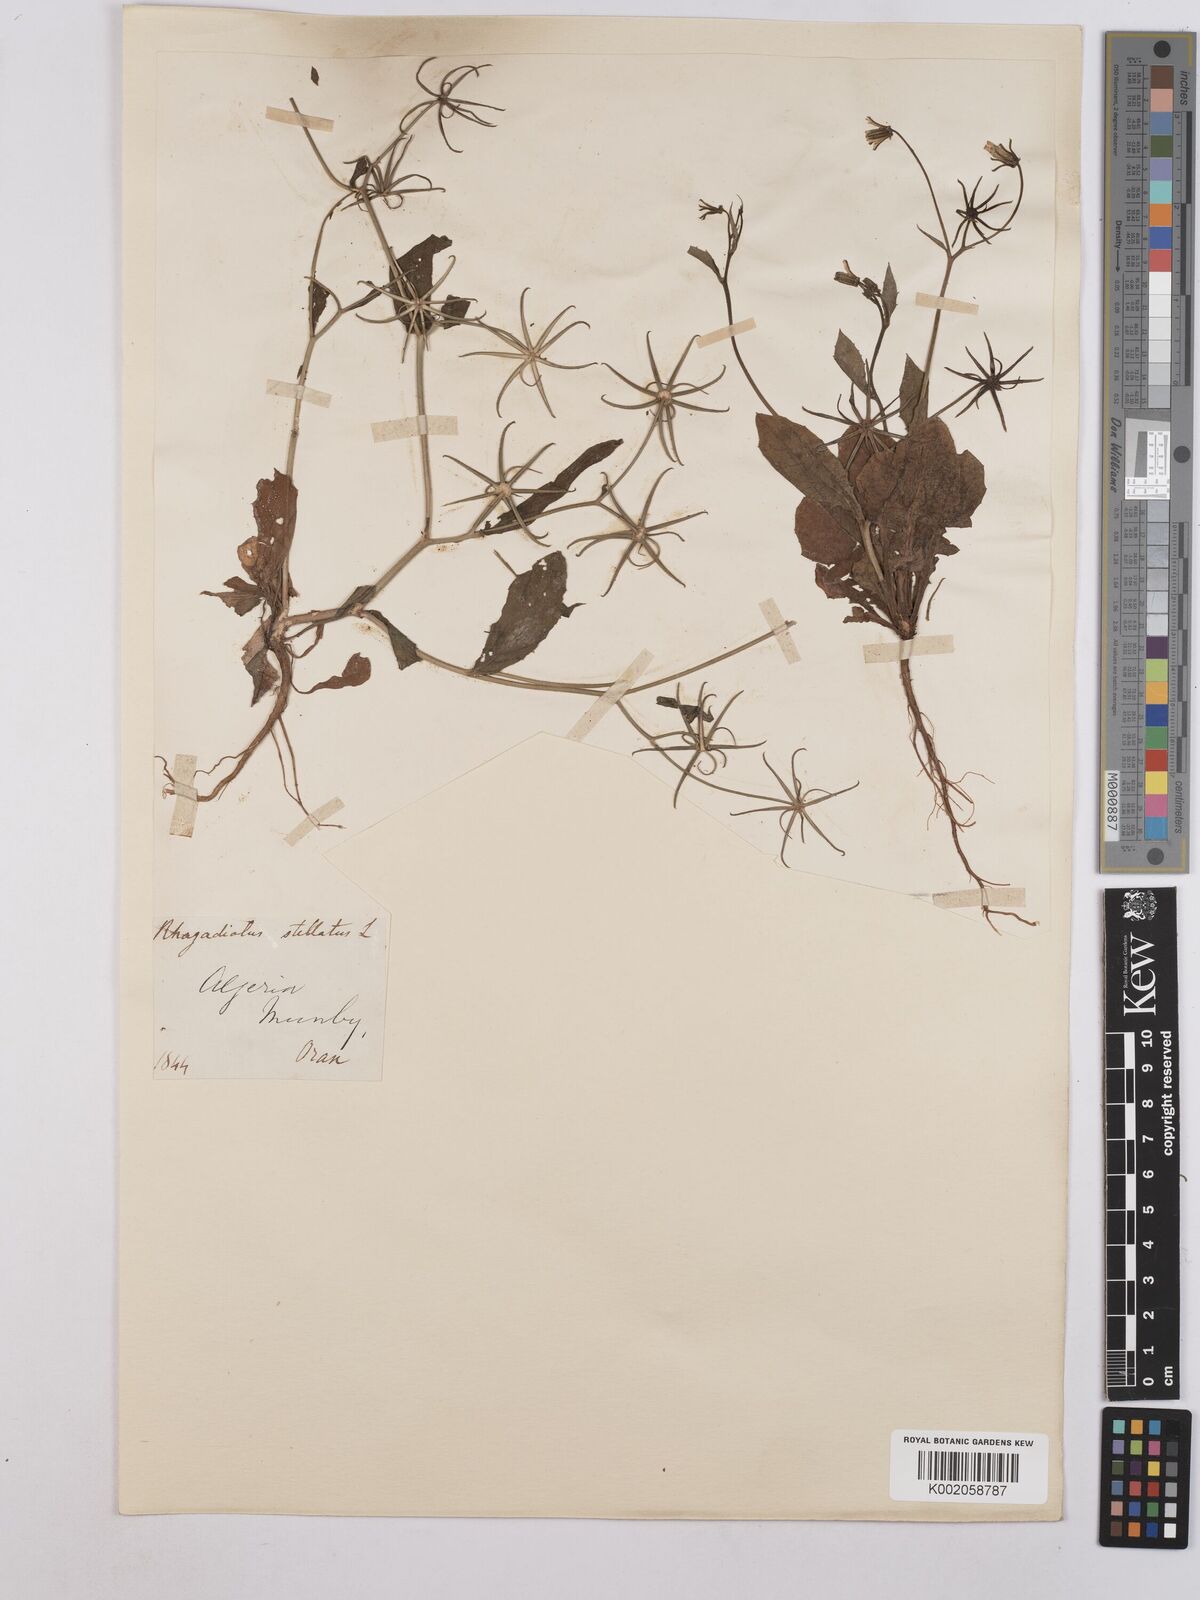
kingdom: Plantae
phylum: Tracheophyta
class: Magnoliopsida
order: Asterales
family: Asteraceae
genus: Rhagadiolus
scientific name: Rhagadiolus stellatus
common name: Star hawkbit
